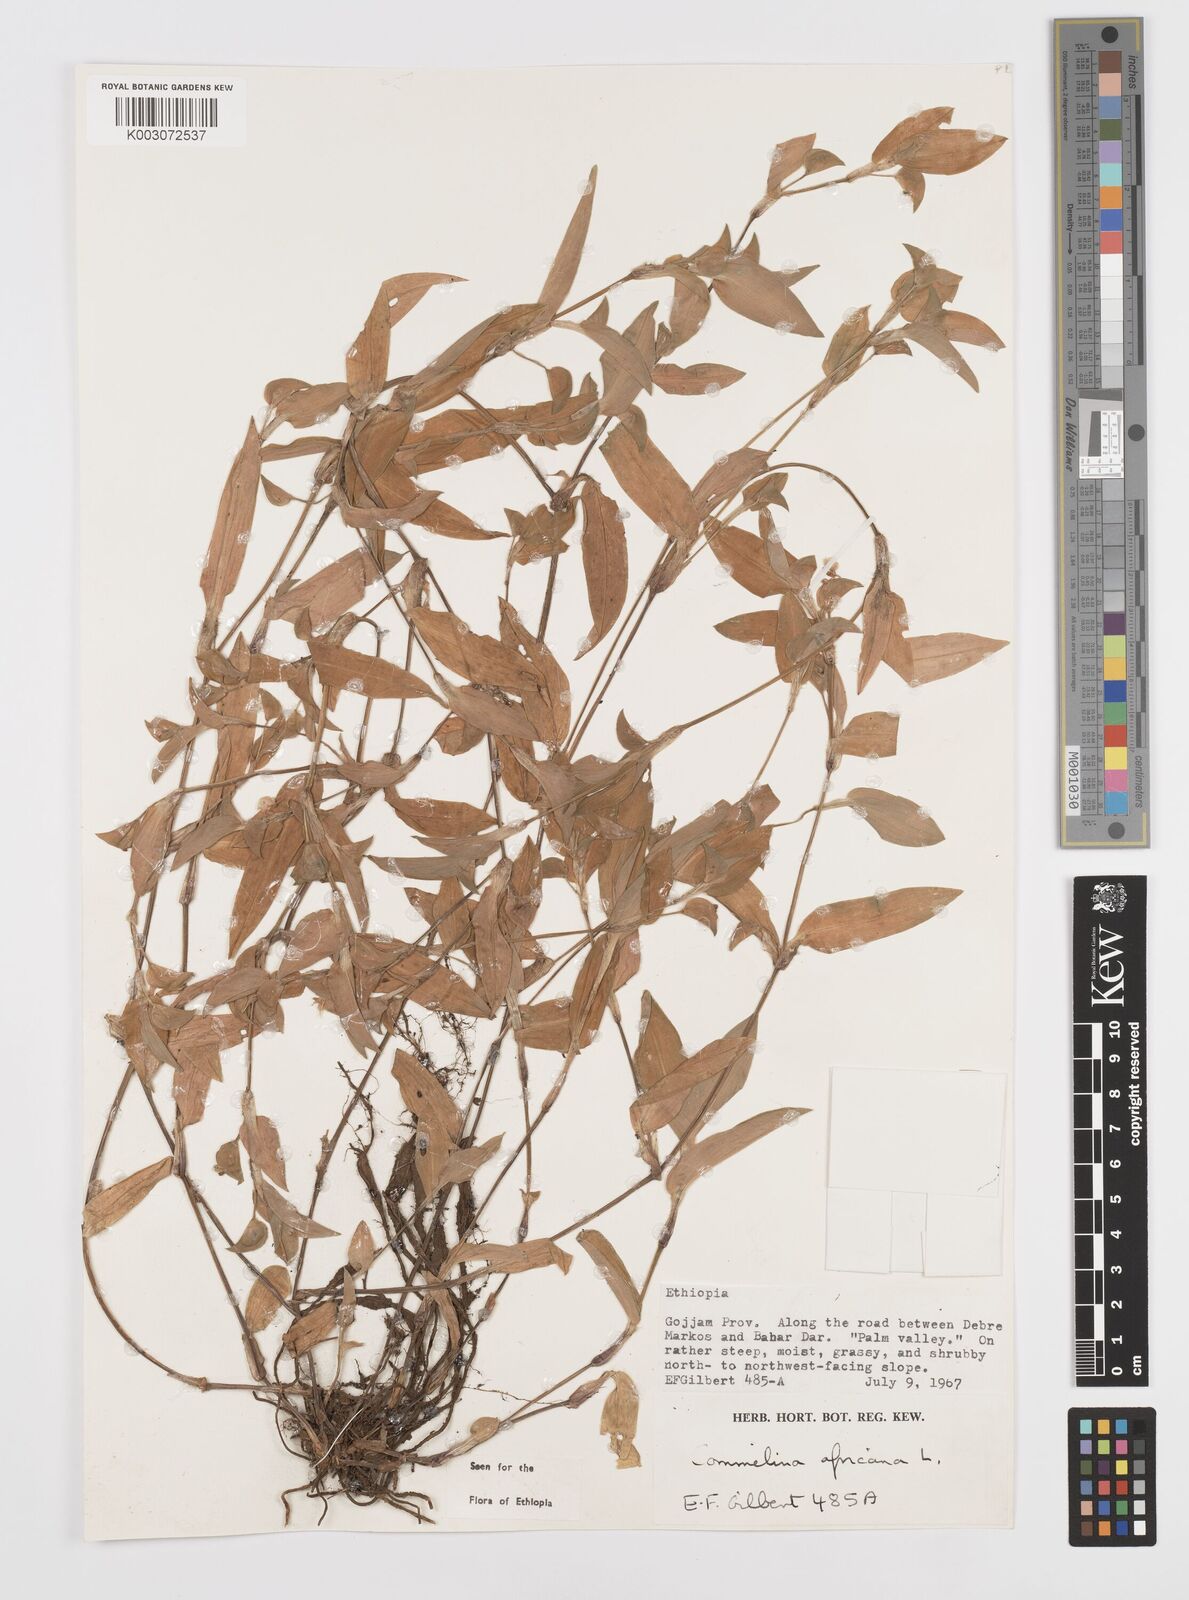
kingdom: Plantae
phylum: Tracheophyta
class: Liliopsida
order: Commelinales
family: Commelinaceae
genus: Commelina
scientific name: Commelina africana
